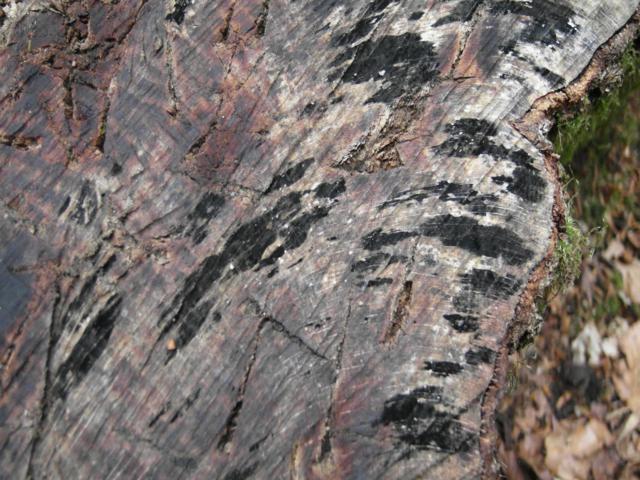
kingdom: Fungi
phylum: Ascomycota
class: Leotiomycetes
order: Helotiales
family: Helotiaceae
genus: Bispora
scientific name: Bispora pallescens
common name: måtte-snitskive
